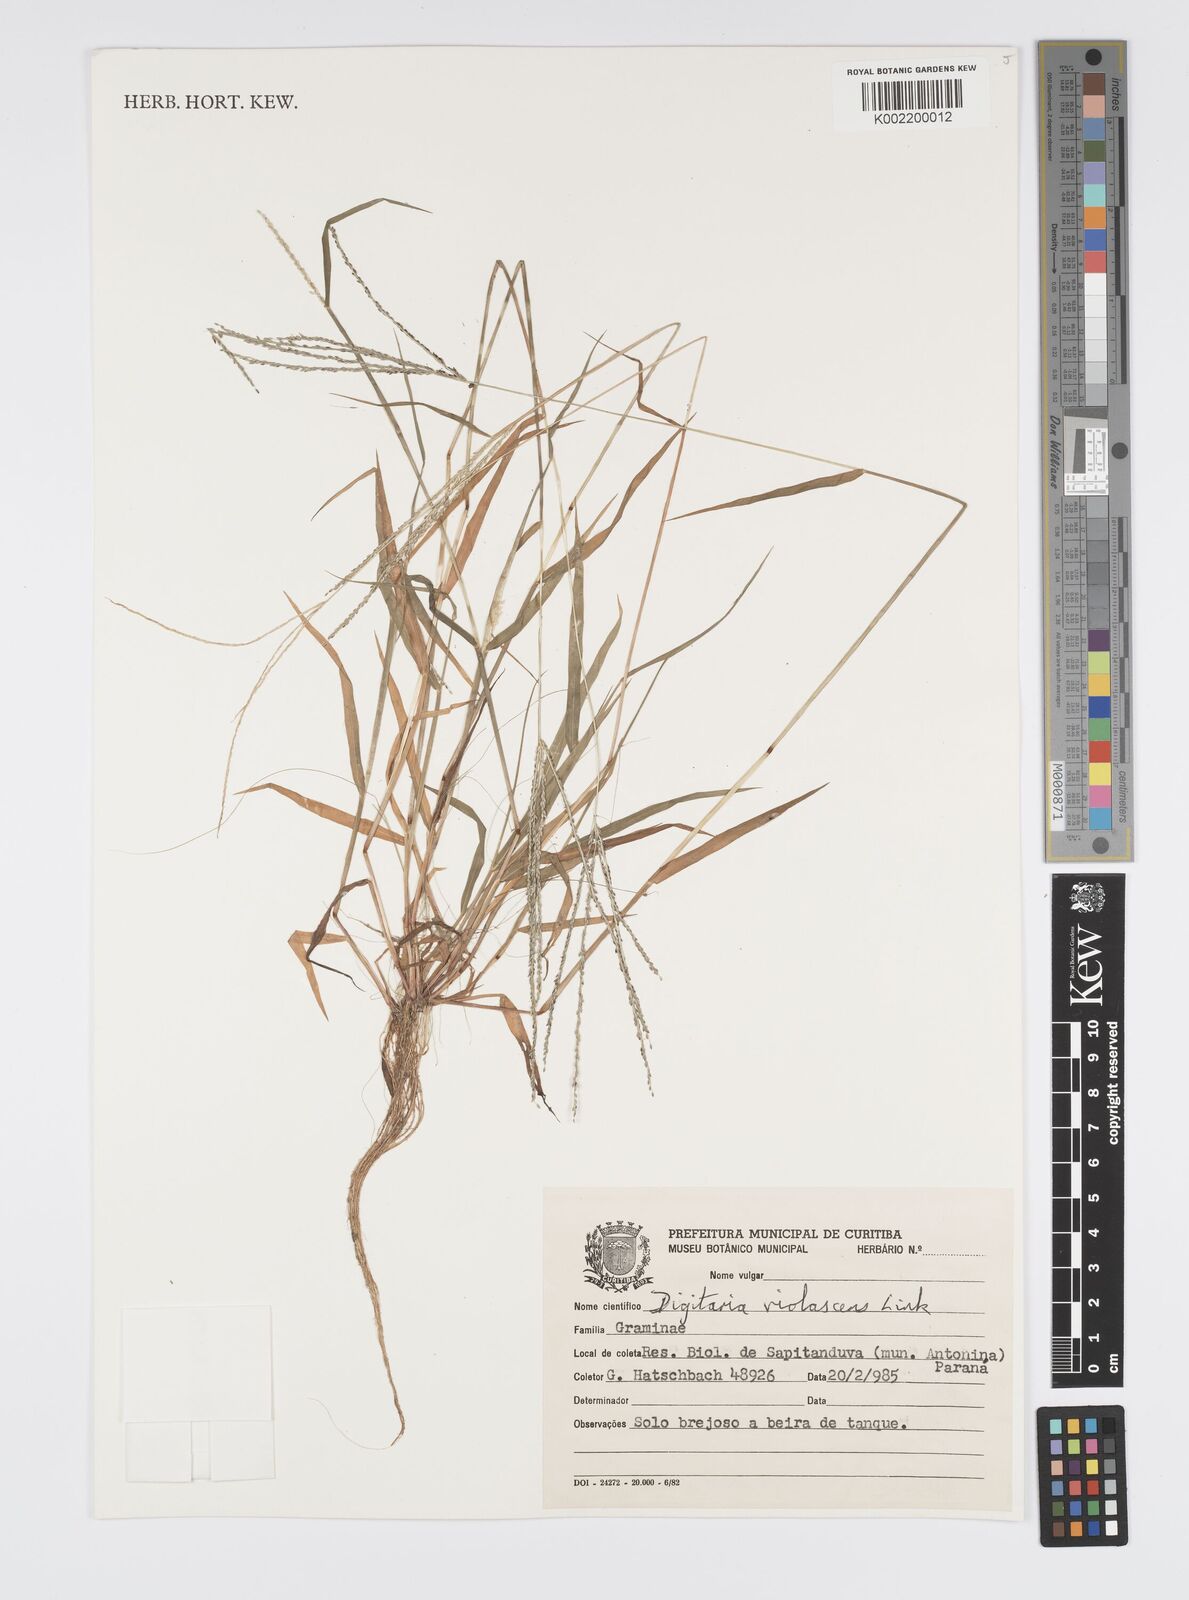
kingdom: Plantae
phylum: Tracheophyta
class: Liliopsida
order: Poales
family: Poaceae
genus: Digitaria
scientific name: Digitaria violascens
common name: Violet crabgrass
